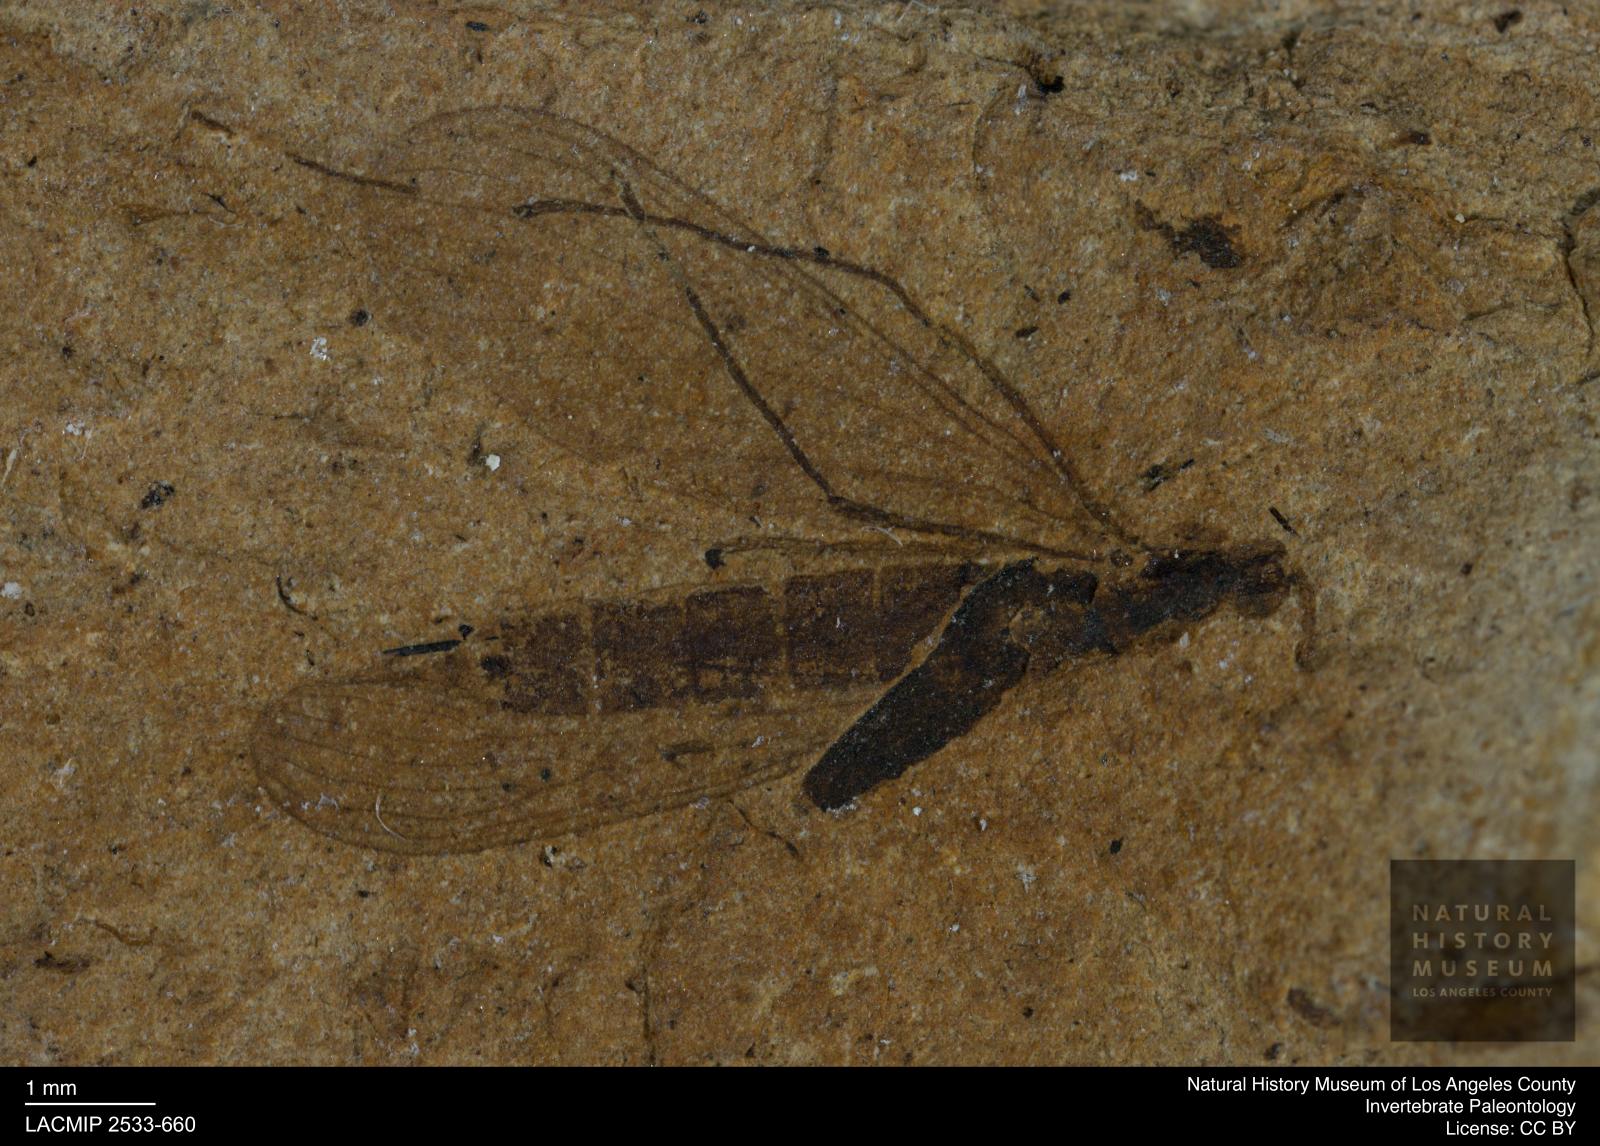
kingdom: Animalia
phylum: Arthropoda
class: Insecta
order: Diptera
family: Trichoceridae
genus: Trichocera
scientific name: Trichocera miocaenica
